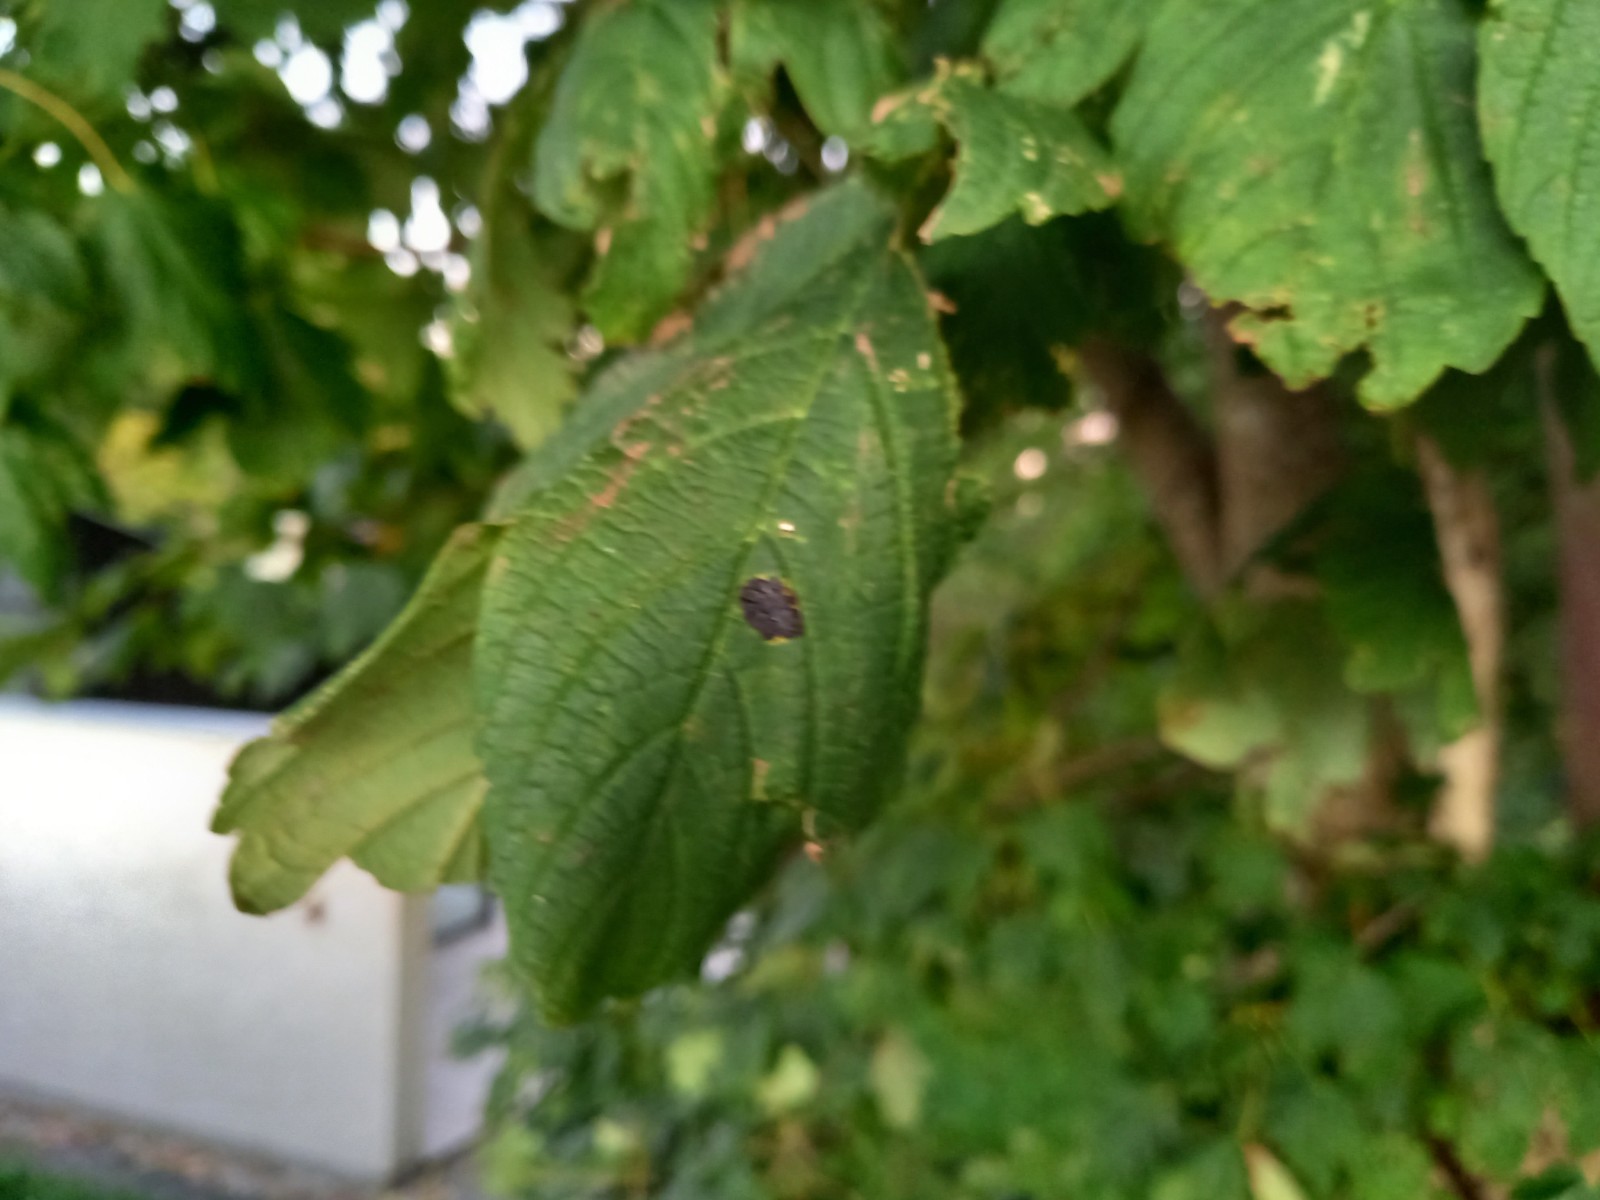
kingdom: Fungi
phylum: Ascomycota
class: Leotiomycetes
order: Rhytismatales
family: Rhytismataceae
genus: Rhytisma
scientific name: Rhytisma acerinum
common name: ahorn-rynkeplet
